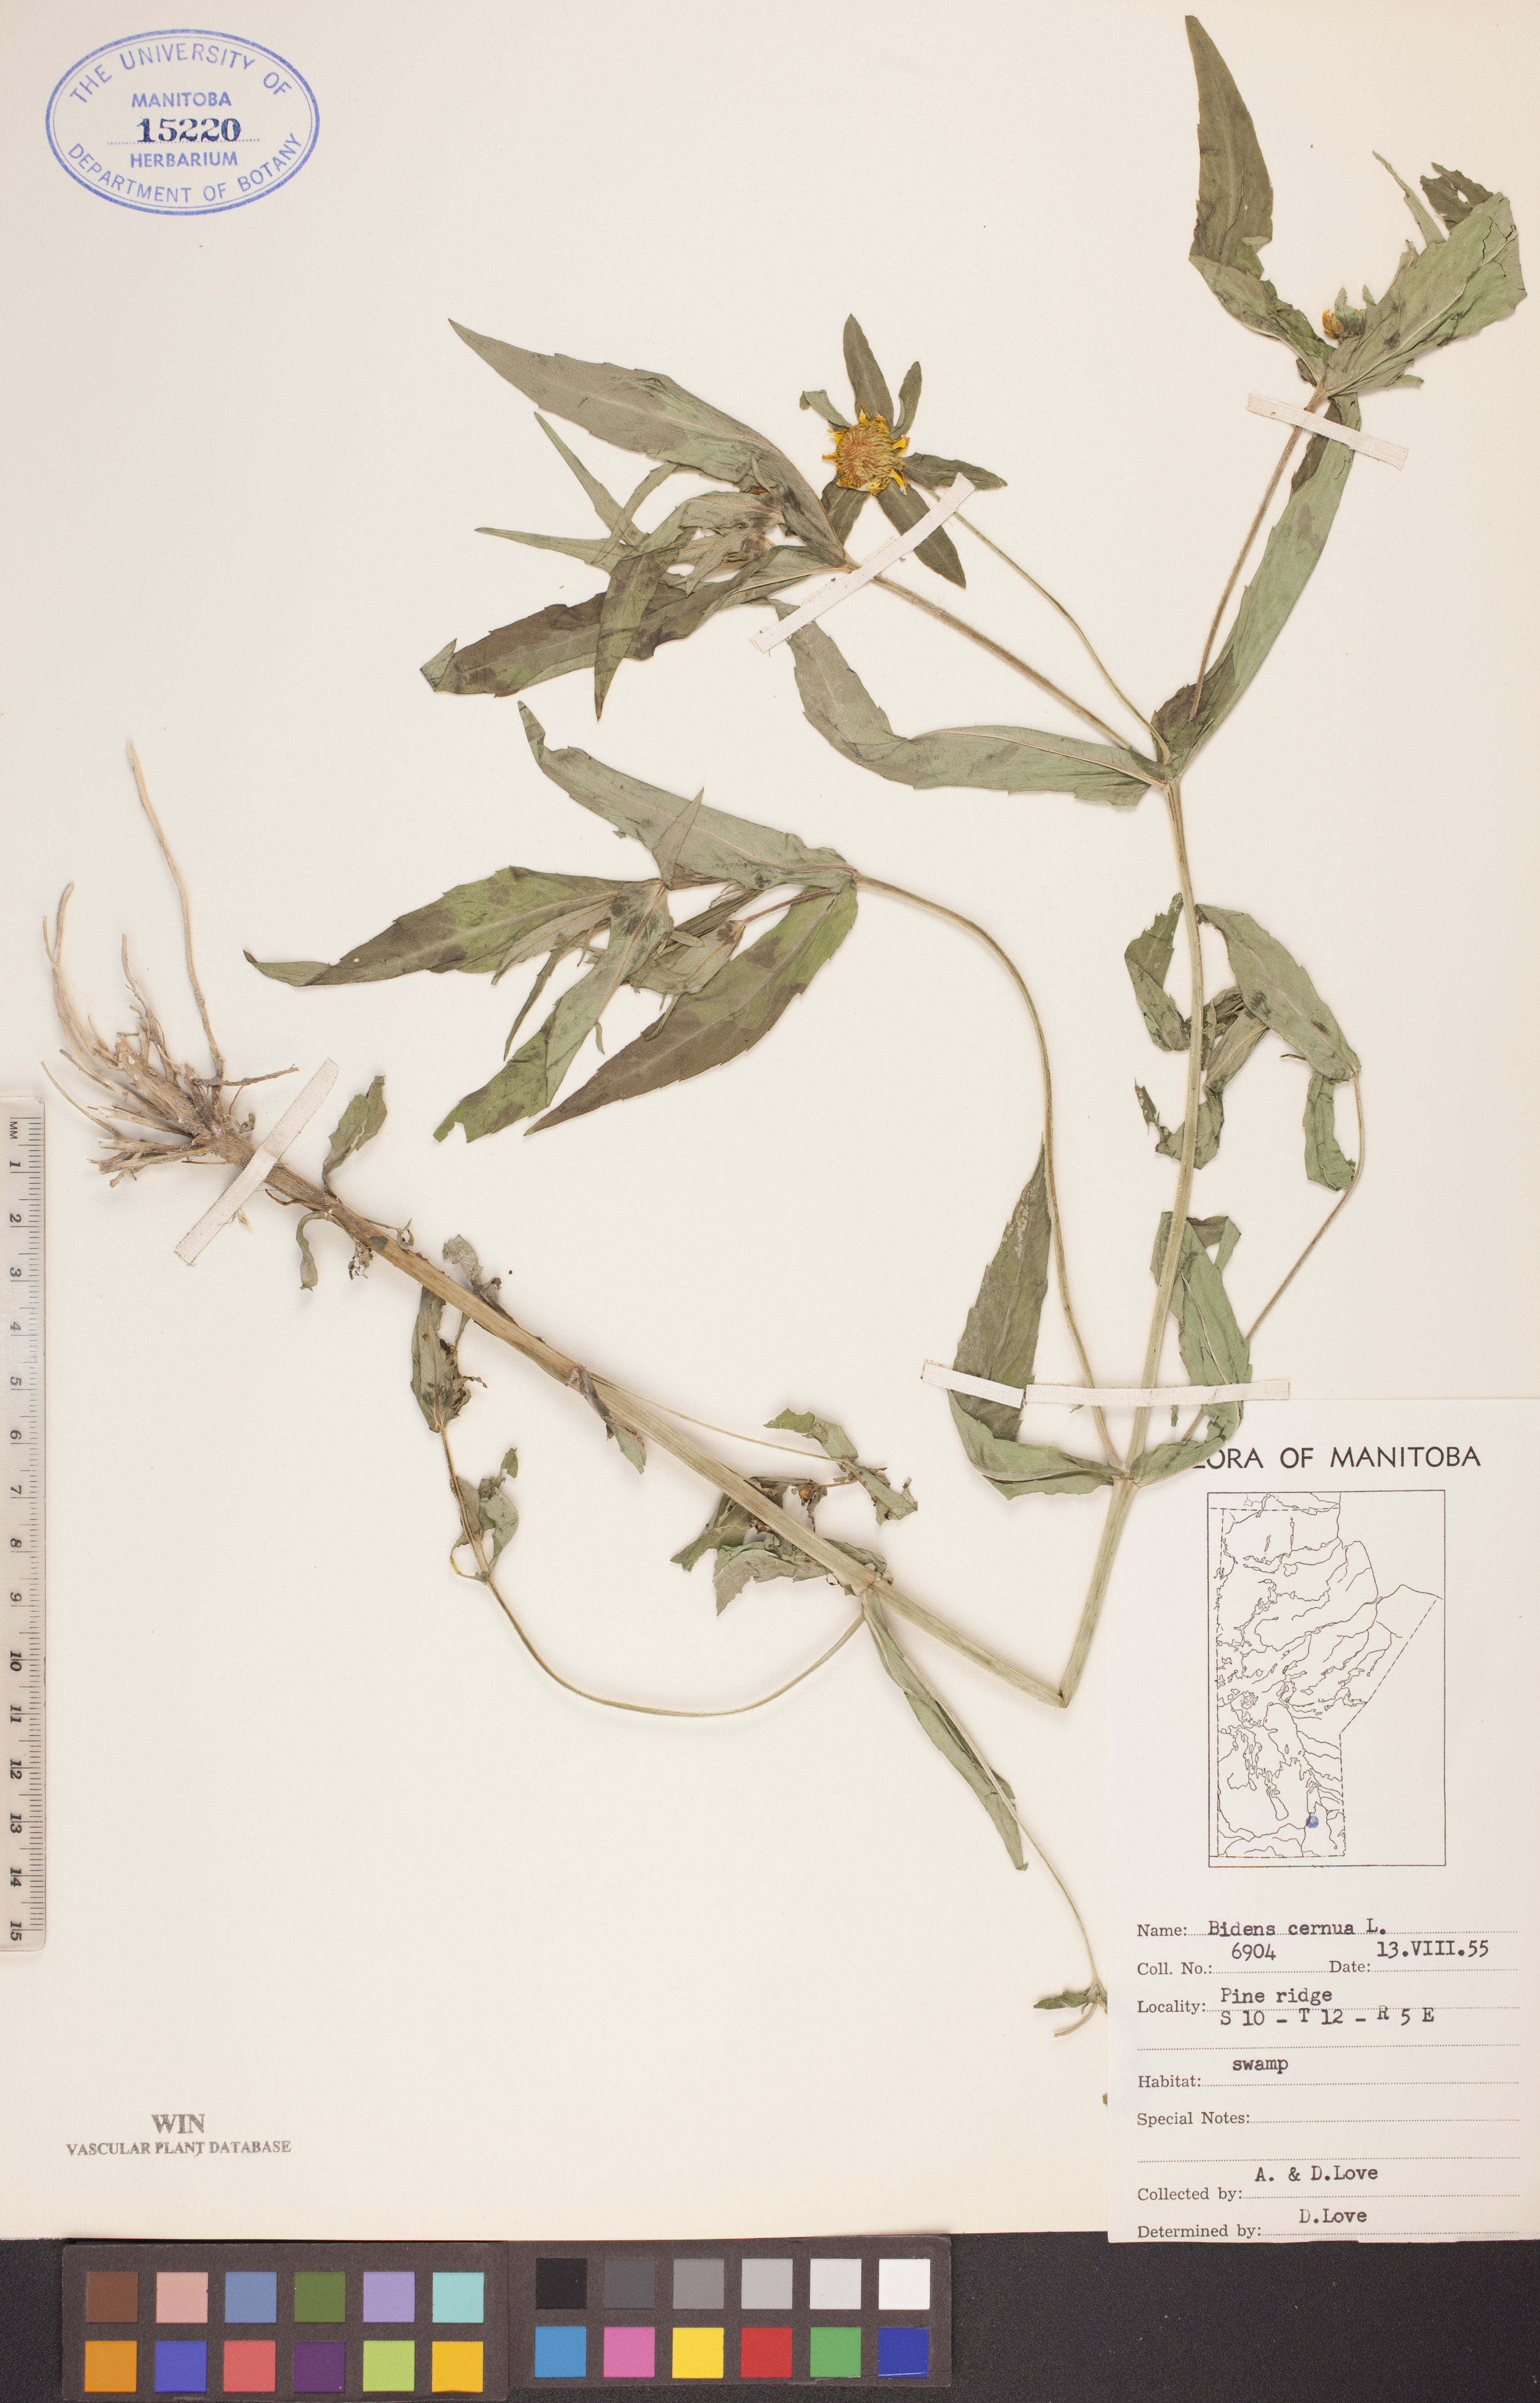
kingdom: Plantae
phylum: Tracheophyta
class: Magnoliopsida
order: Asterales
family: Asteraceae
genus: Bidens
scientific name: Bidens cernua
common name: Nodding bur-marigold
